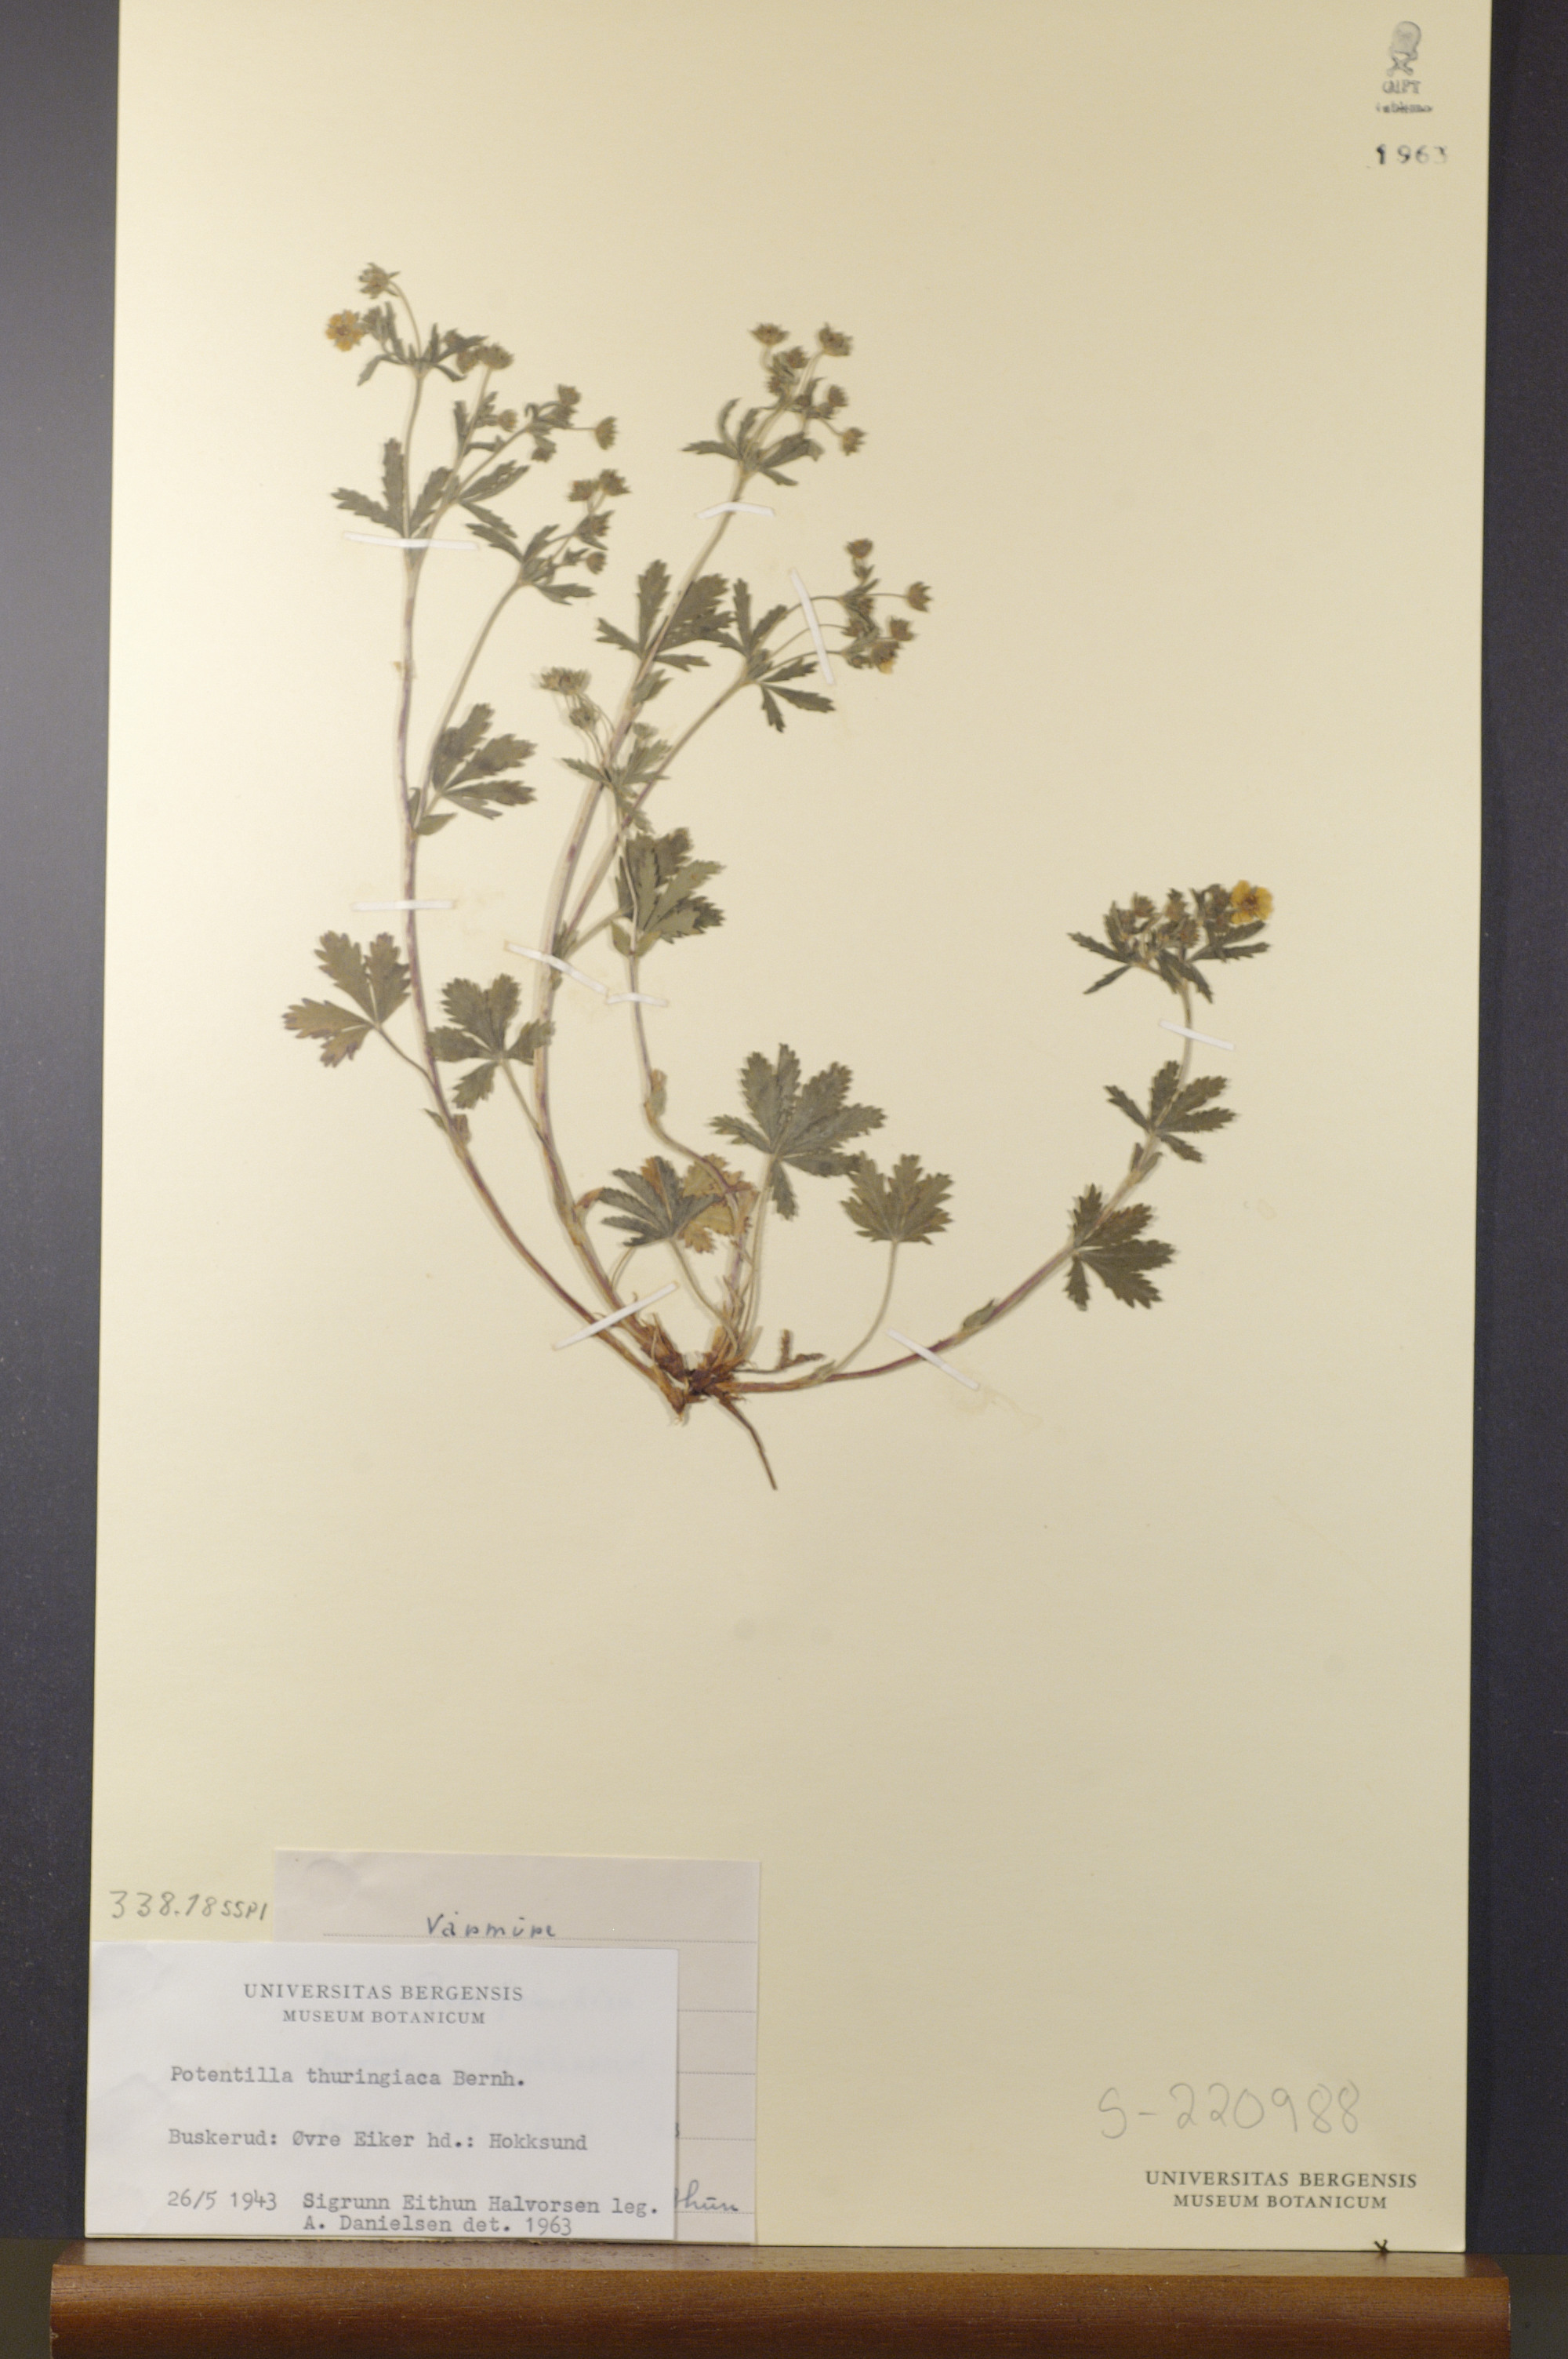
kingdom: Plantae
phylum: Tracheophyta
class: Magnoliopsida
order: Rosales
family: Rosaceae
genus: Potentilla
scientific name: Potentilla thuringiaca
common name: European cinquefoil
